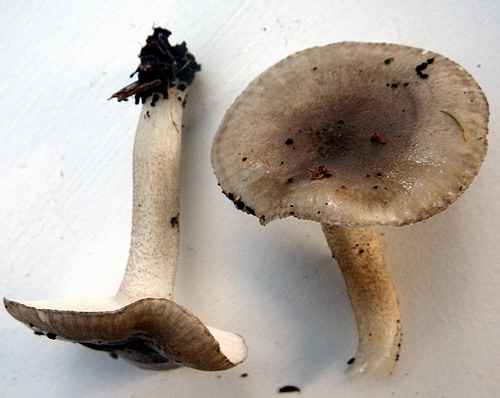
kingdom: Fungi
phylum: Basidiomycota
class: Agaricomycetes
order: Agaricales
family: Hygrophoraceae
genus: Hygrophorus
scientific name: Hygrophorus pustulatus
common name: mørkprikket sneglehat
